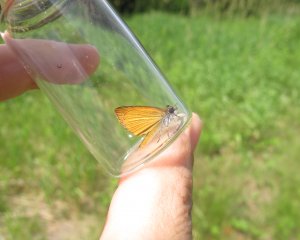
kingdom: Animalia
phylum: Arthropoda
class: Insecta
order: Lepidoptera
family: Hesperiidae
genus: Ancyloxypha
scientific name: Ancyloxypha numitor
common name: Least Skipper
